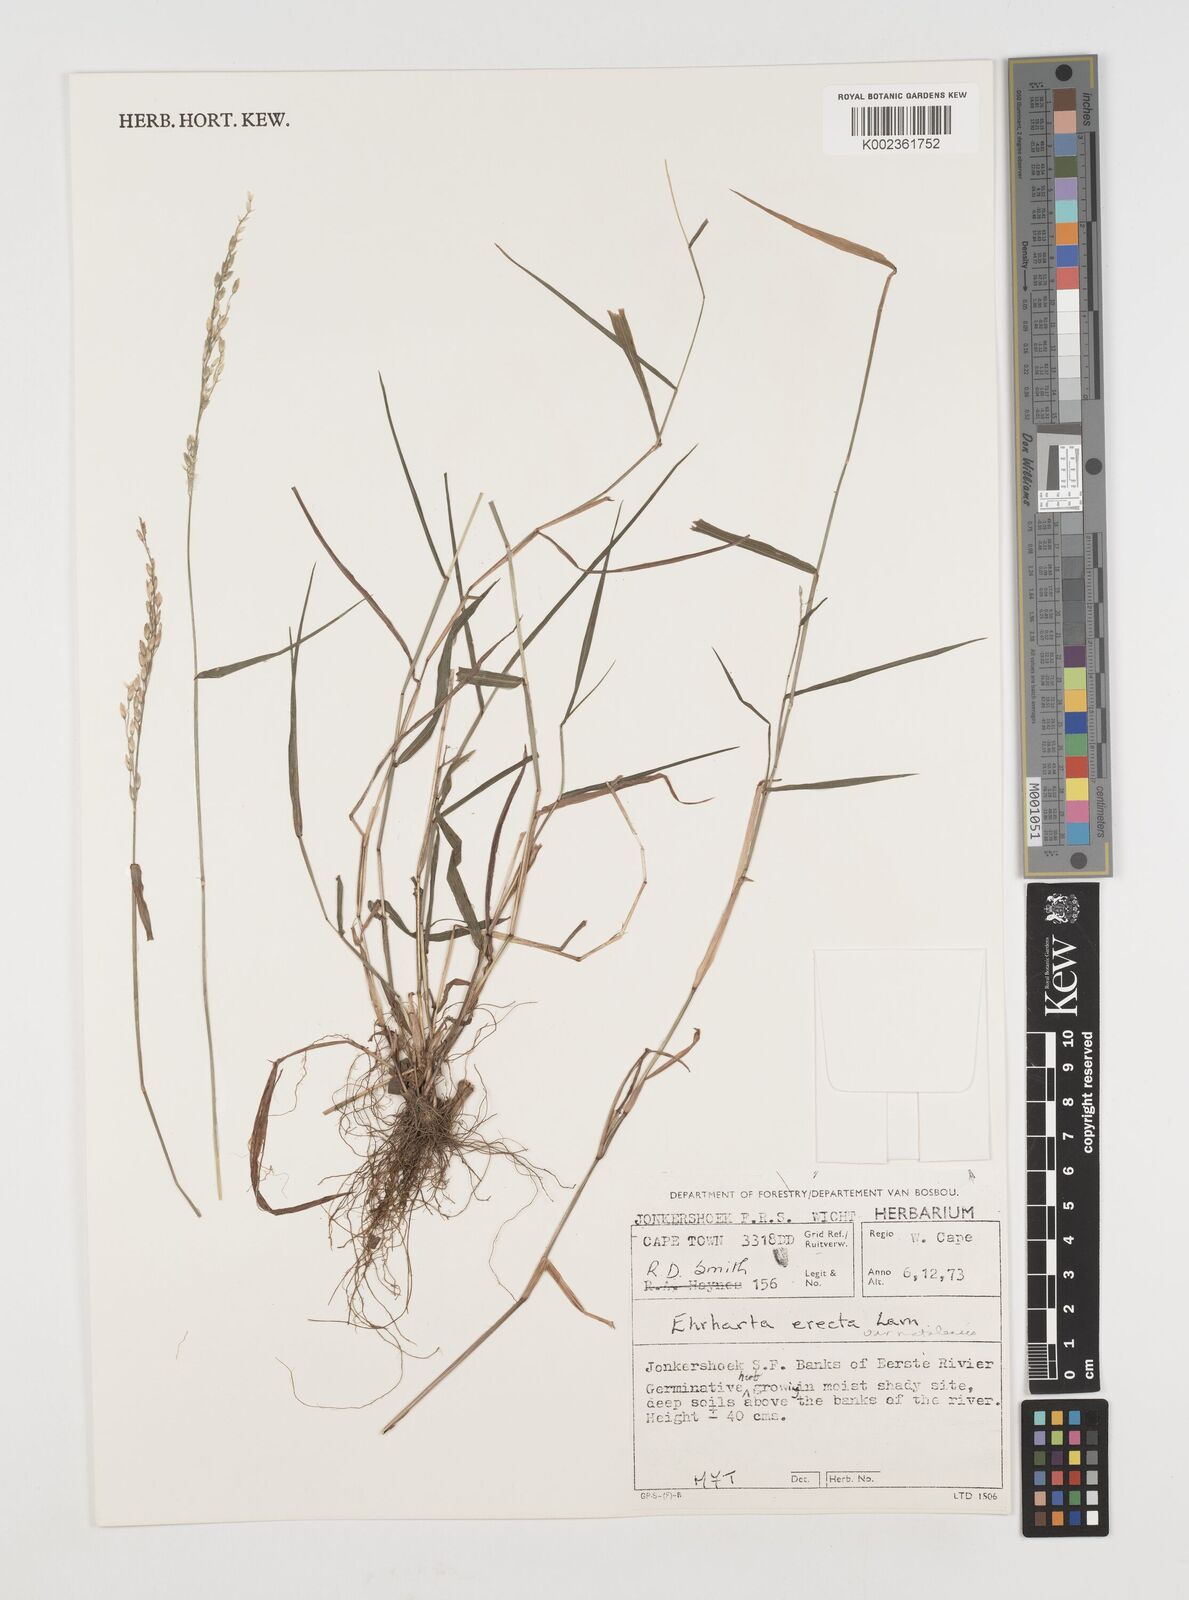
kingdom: Plantae
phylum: Tracheophyta
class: Liliopsida
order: Poales
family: Poaceae
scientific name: Poaceae
